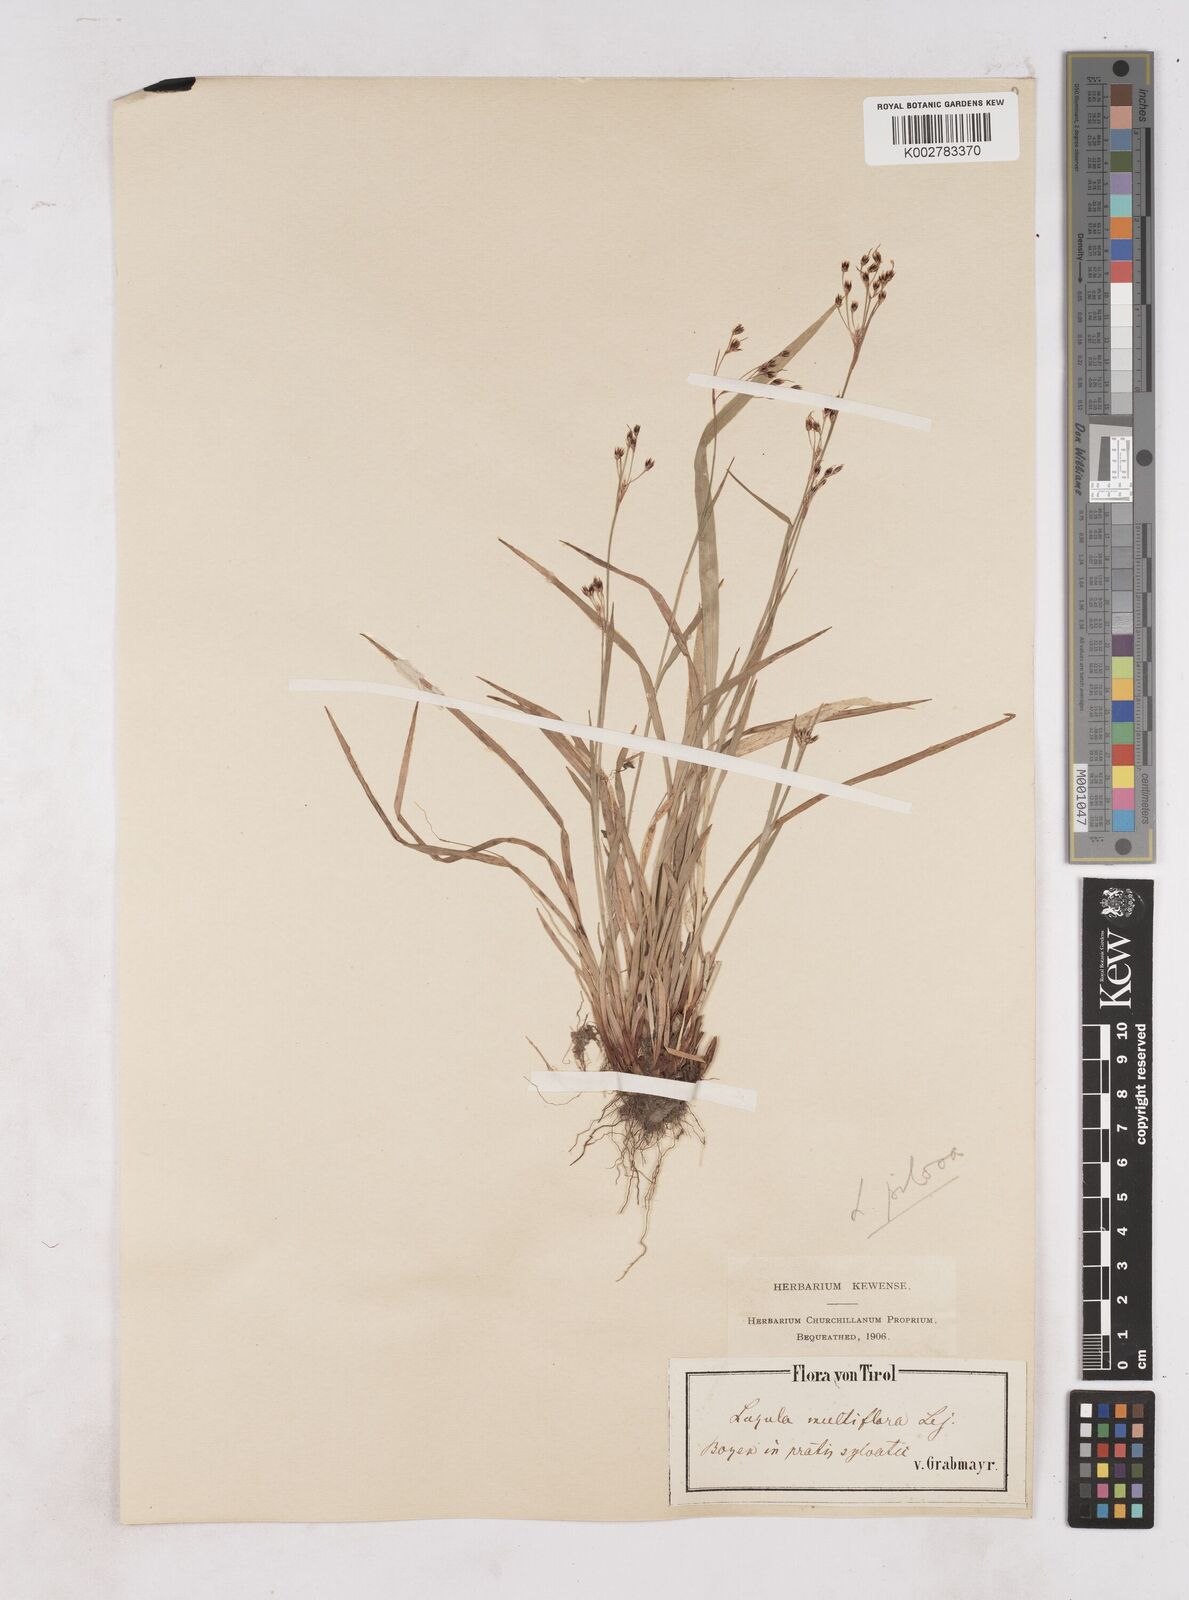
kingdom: Plantae
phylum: Tracheophyta
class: Liliopsida
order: Poales
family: Juncaceae
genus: Luzula
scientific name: Luzula multiflora
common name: Heath wood-rush
